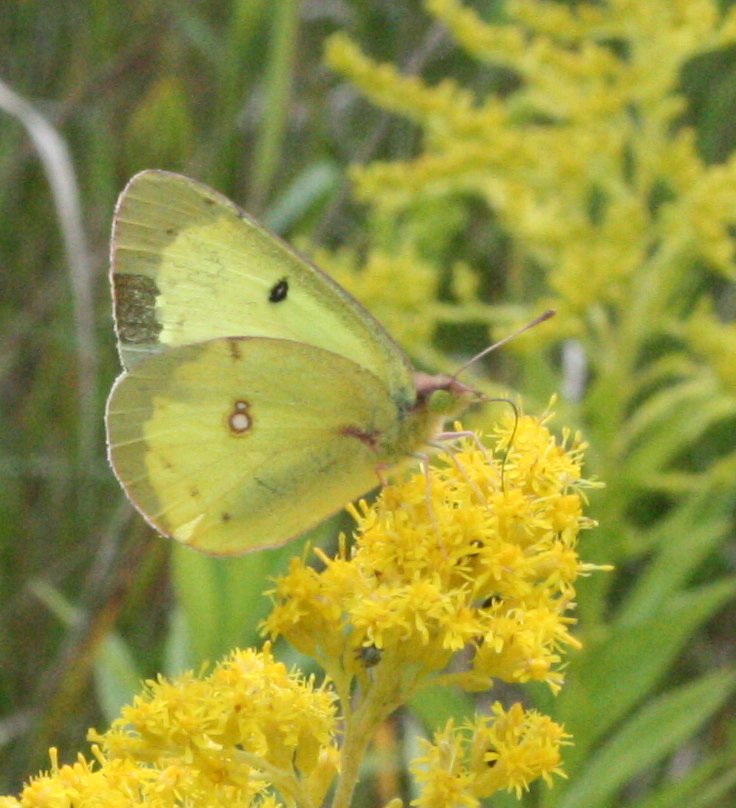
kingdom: Animalia
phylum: Arthropoda
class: Insecta
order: Lepidoptera
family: Pieridae
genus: Colias
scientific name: Colias philodice
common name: Clouded Sulphur
